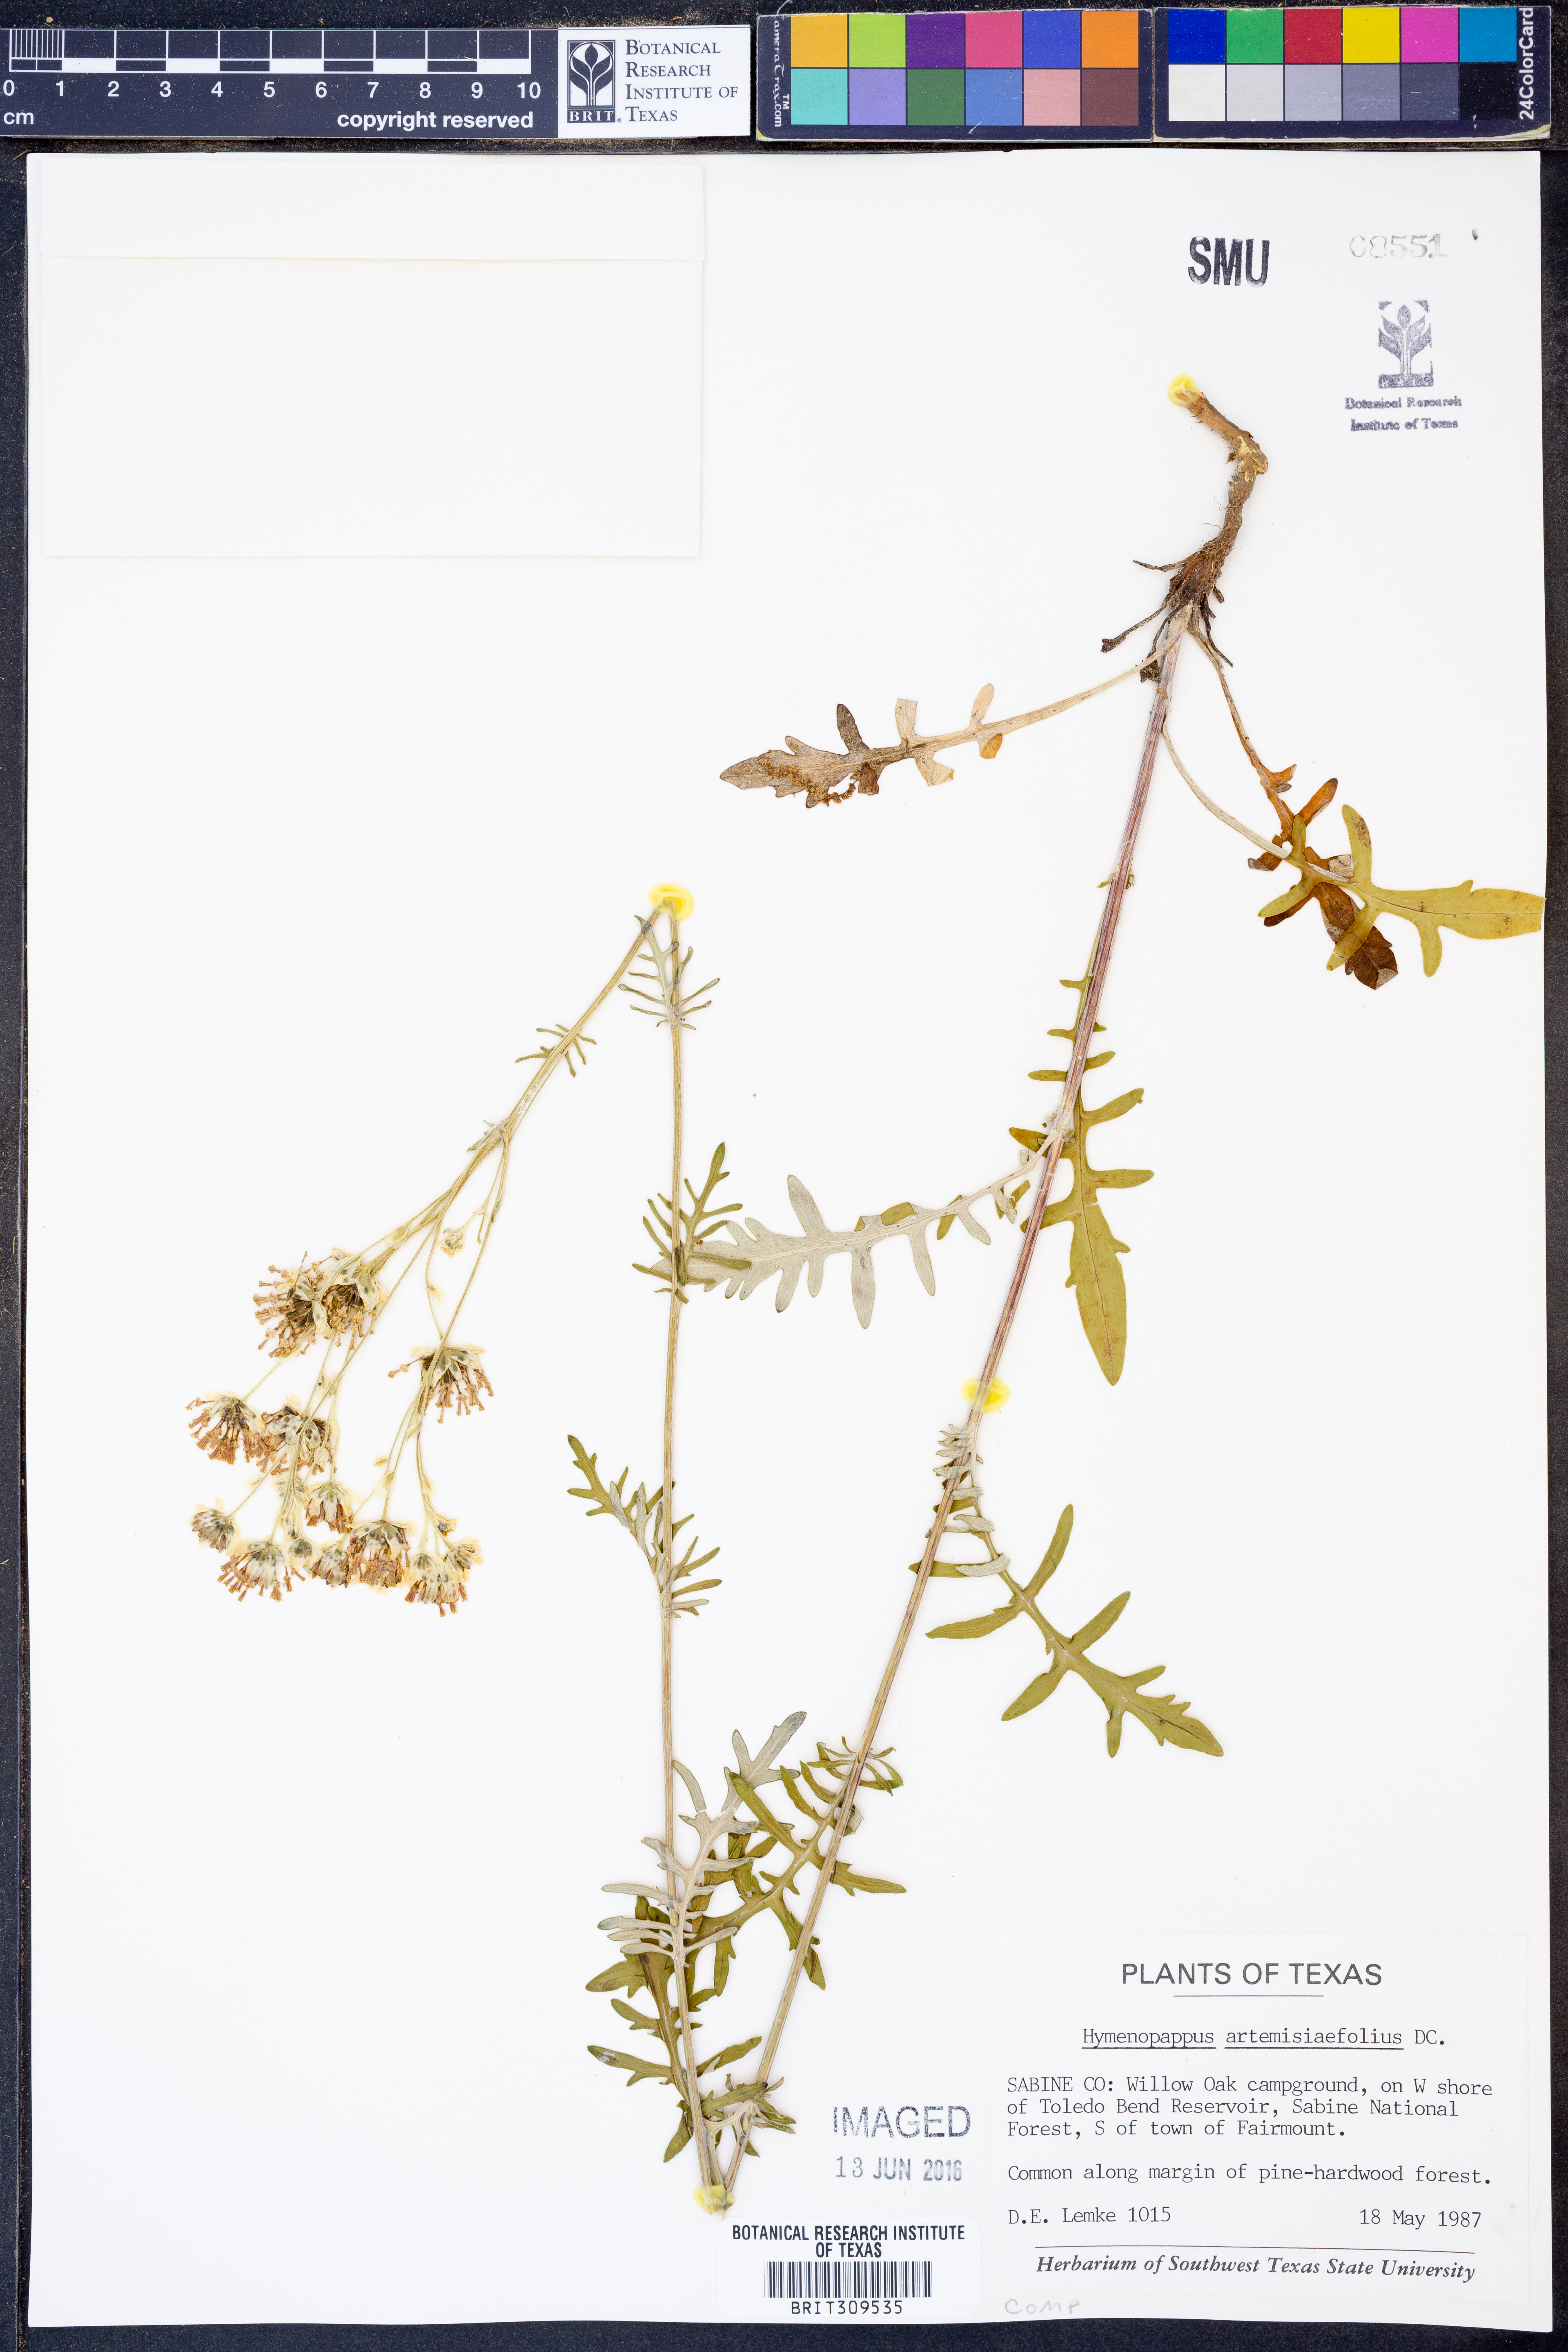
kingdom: Plantae
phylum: Tracheophyta
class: Magnoliopsida
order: Asterales
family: Asteraceae
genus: Hymenopappus
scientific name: Hymenopappus artemisiifolius
